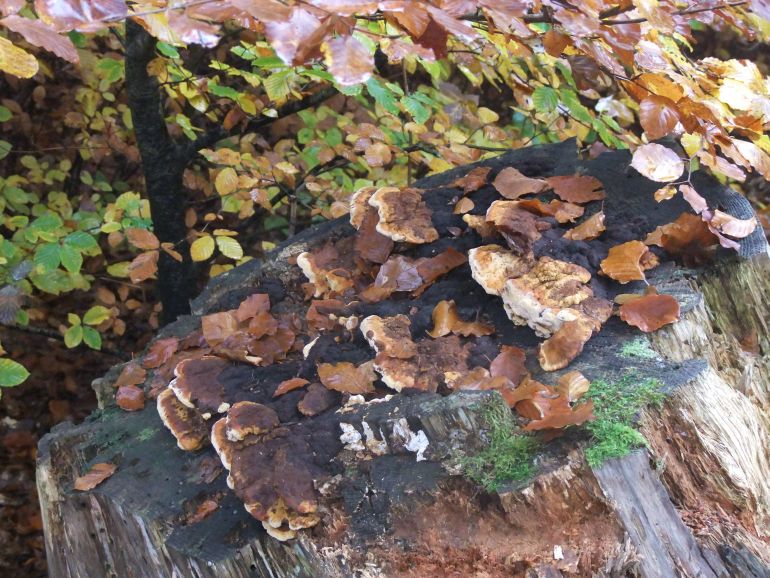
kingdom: Fungi
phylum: Basidiomycota
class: Agaricomycetes
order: Gloeophyllales
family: Gloeophyllaceae
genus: Gloeophyllum
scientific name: Gloeophyllum odoratum
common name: duftende korkhat
